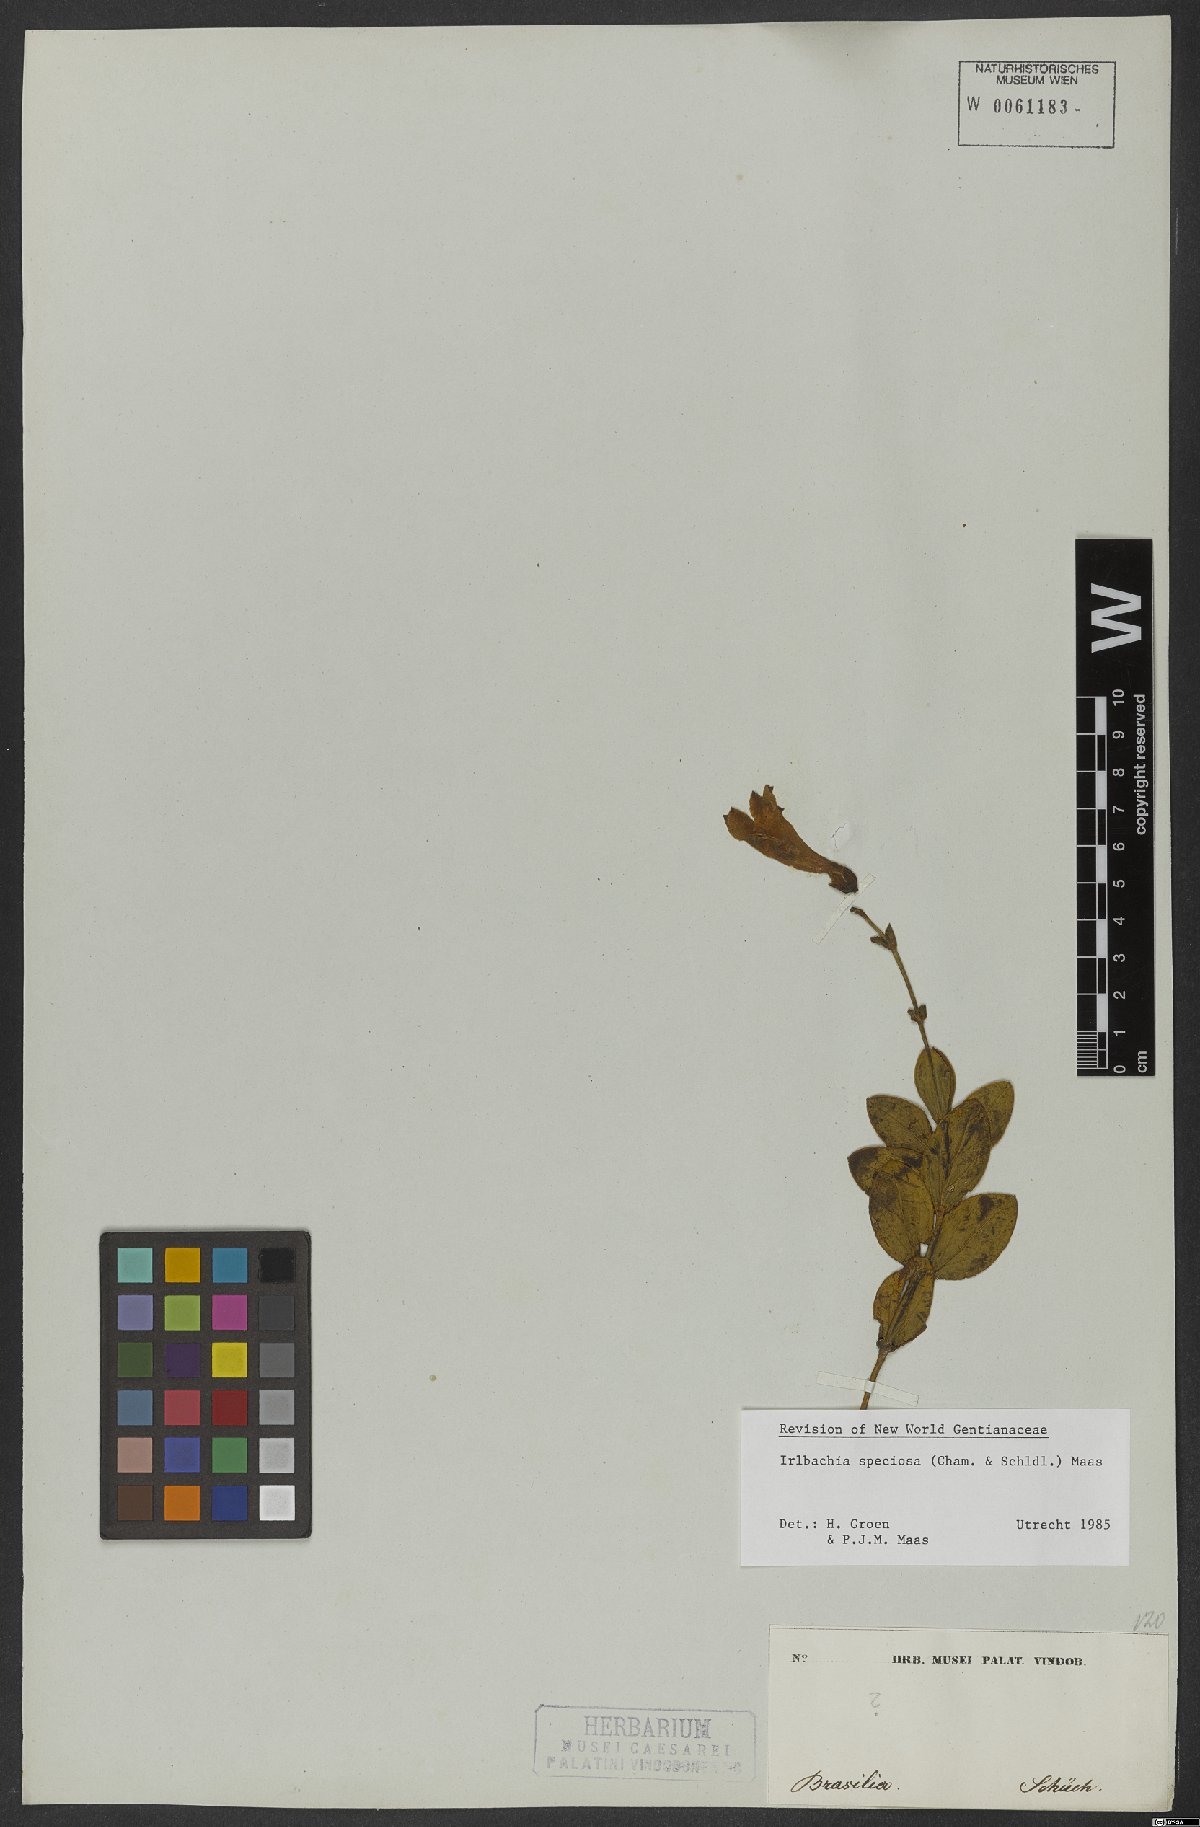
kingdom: Plantae
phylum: Tracheophyta
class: Magnoliopsida
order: Gentianales
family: Gentianaceae
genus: Calolisianthus
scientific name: Calolisianthus speciosus
